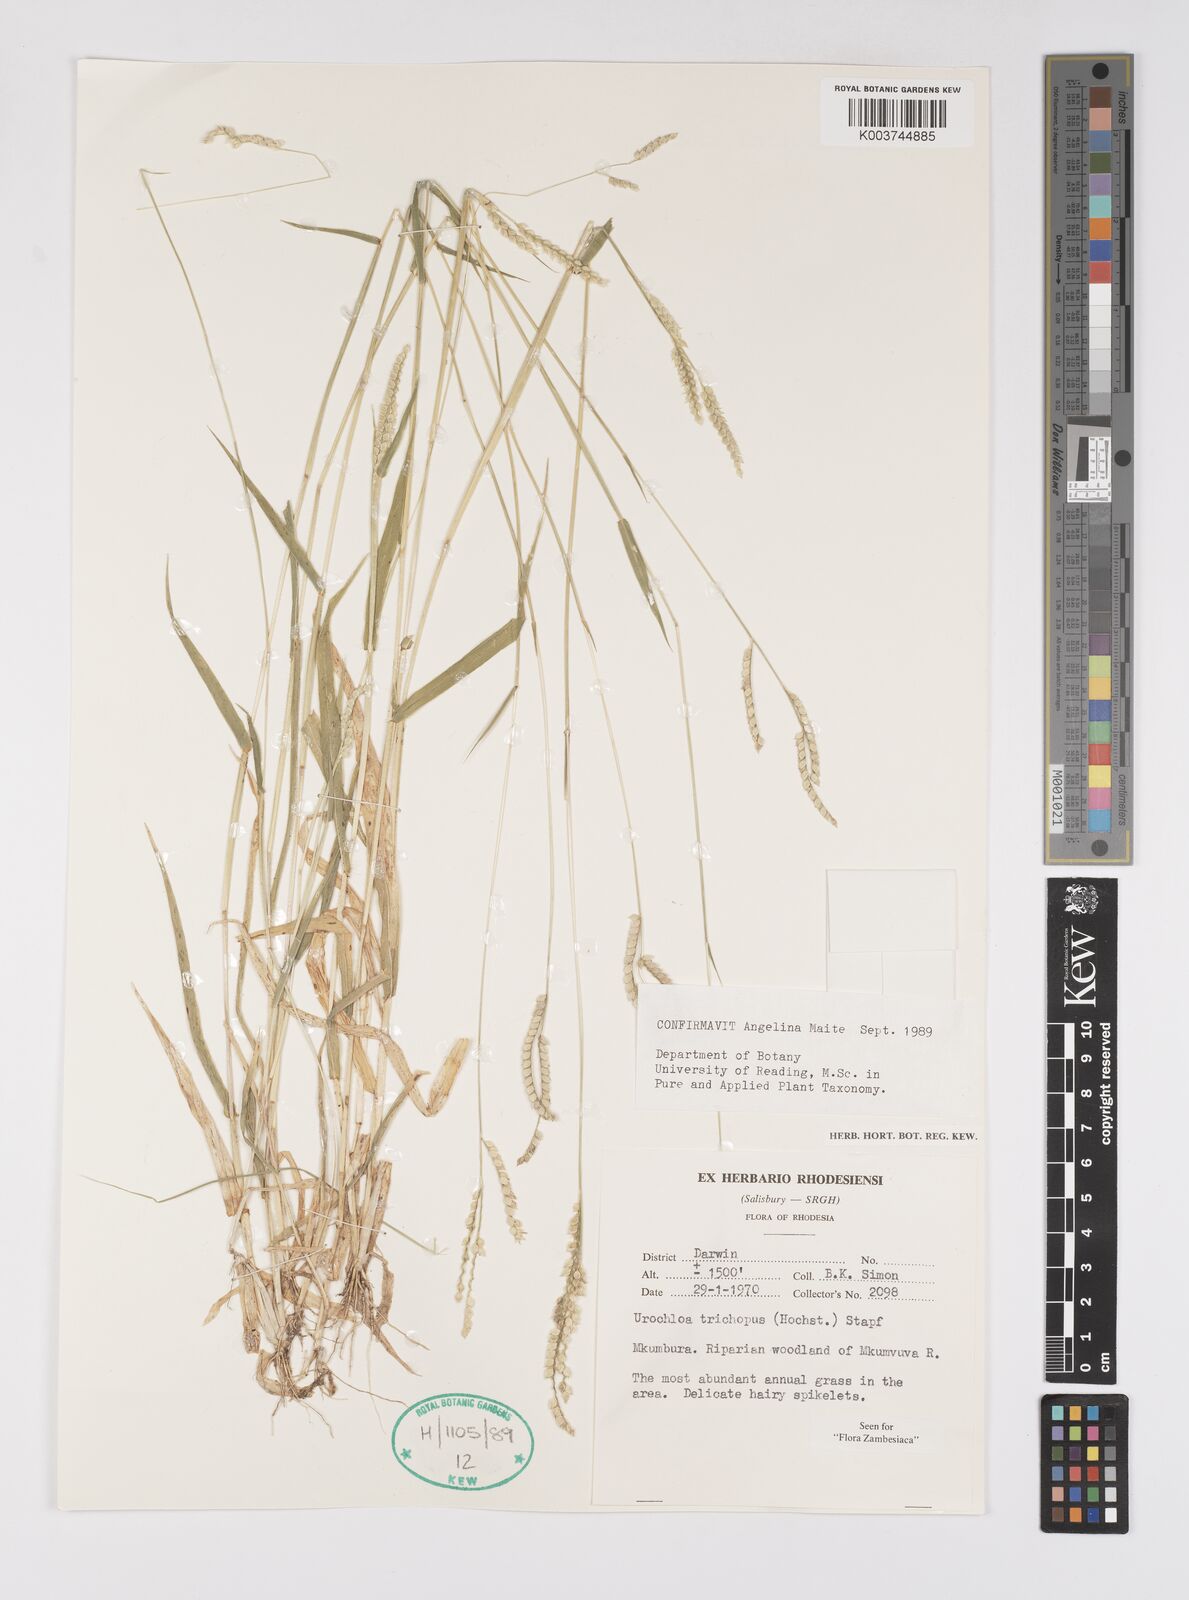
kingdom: Plantae
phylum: Tracheophyta
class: Liliopsida
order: Poales
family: Poaceae
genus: Urochloa
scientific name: Urochloa trichopus
